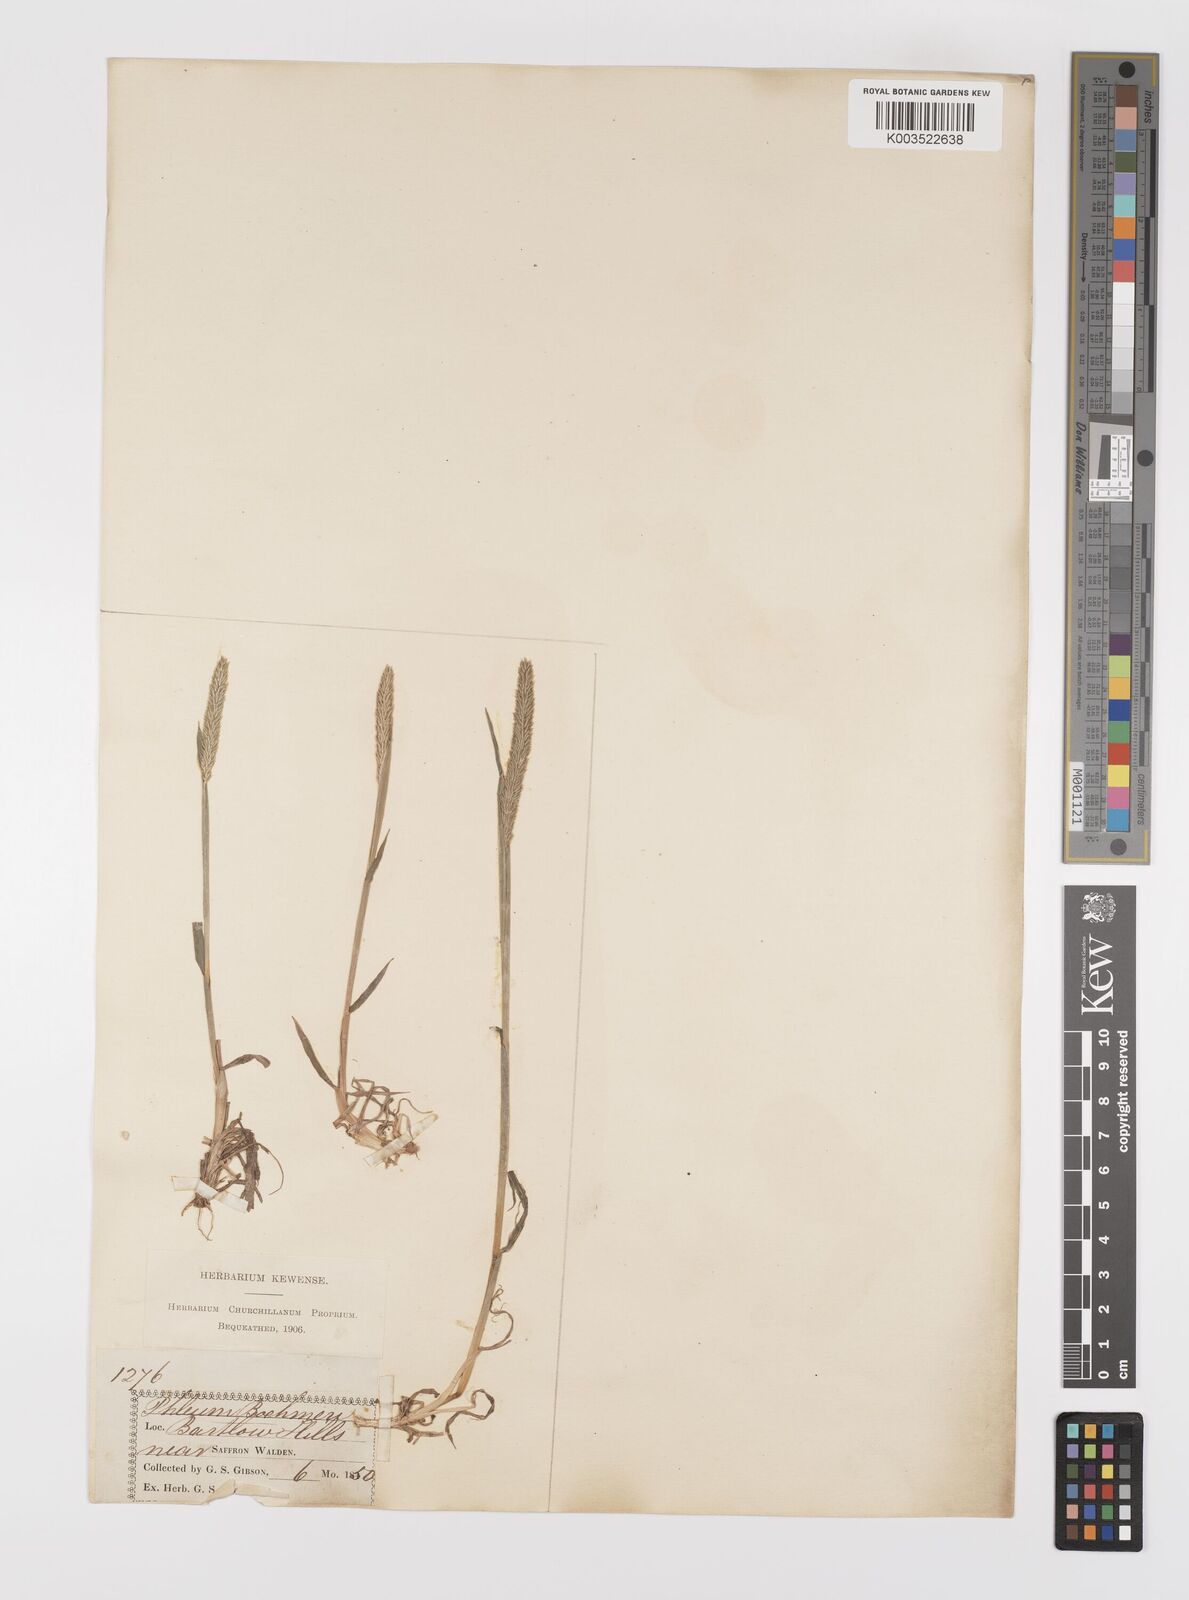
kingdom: Plantae
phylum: Tracheophyta
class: Liliopsida
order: Poales
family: Poaceae
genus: Phleum
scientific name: Phleum phleoides
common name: Purple-stem cat's-tail
